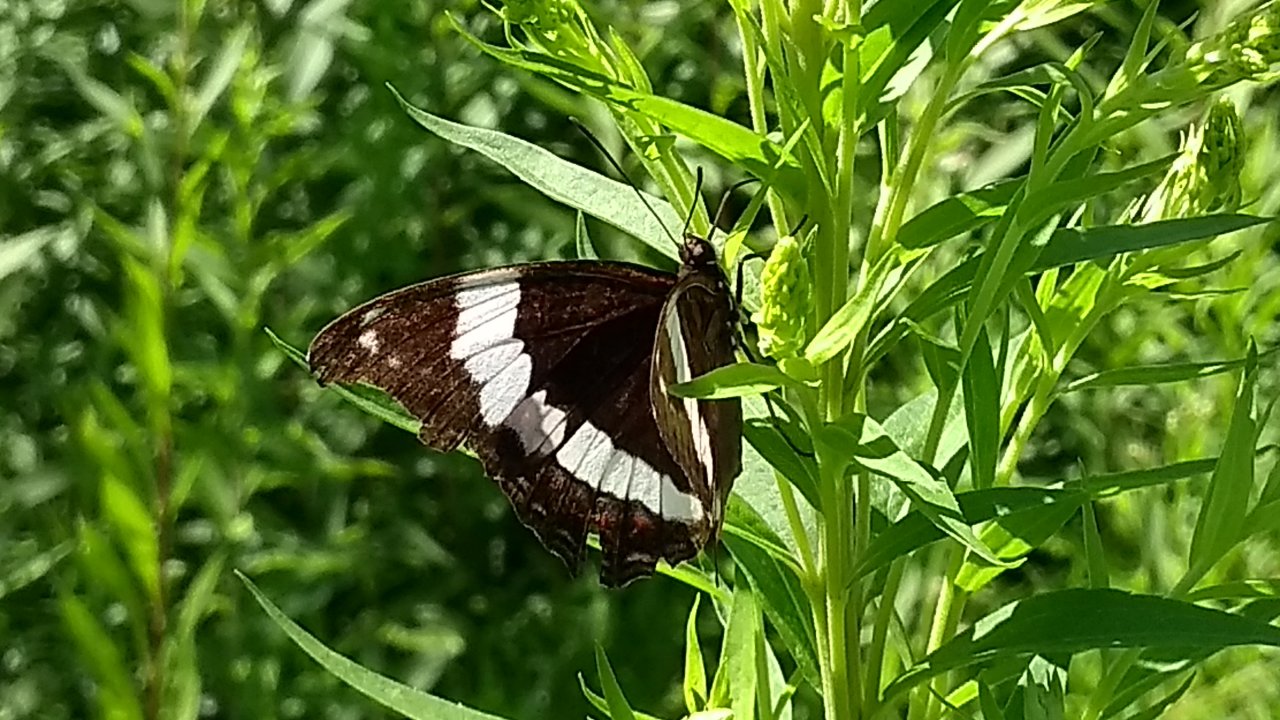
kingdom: Animalia
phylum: Arthropoda
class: Insecta
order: Lepidoptera
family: Nymphalidae
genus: Limenitis
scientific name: Limenitis arthemis
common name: Red-spotted Admiral
